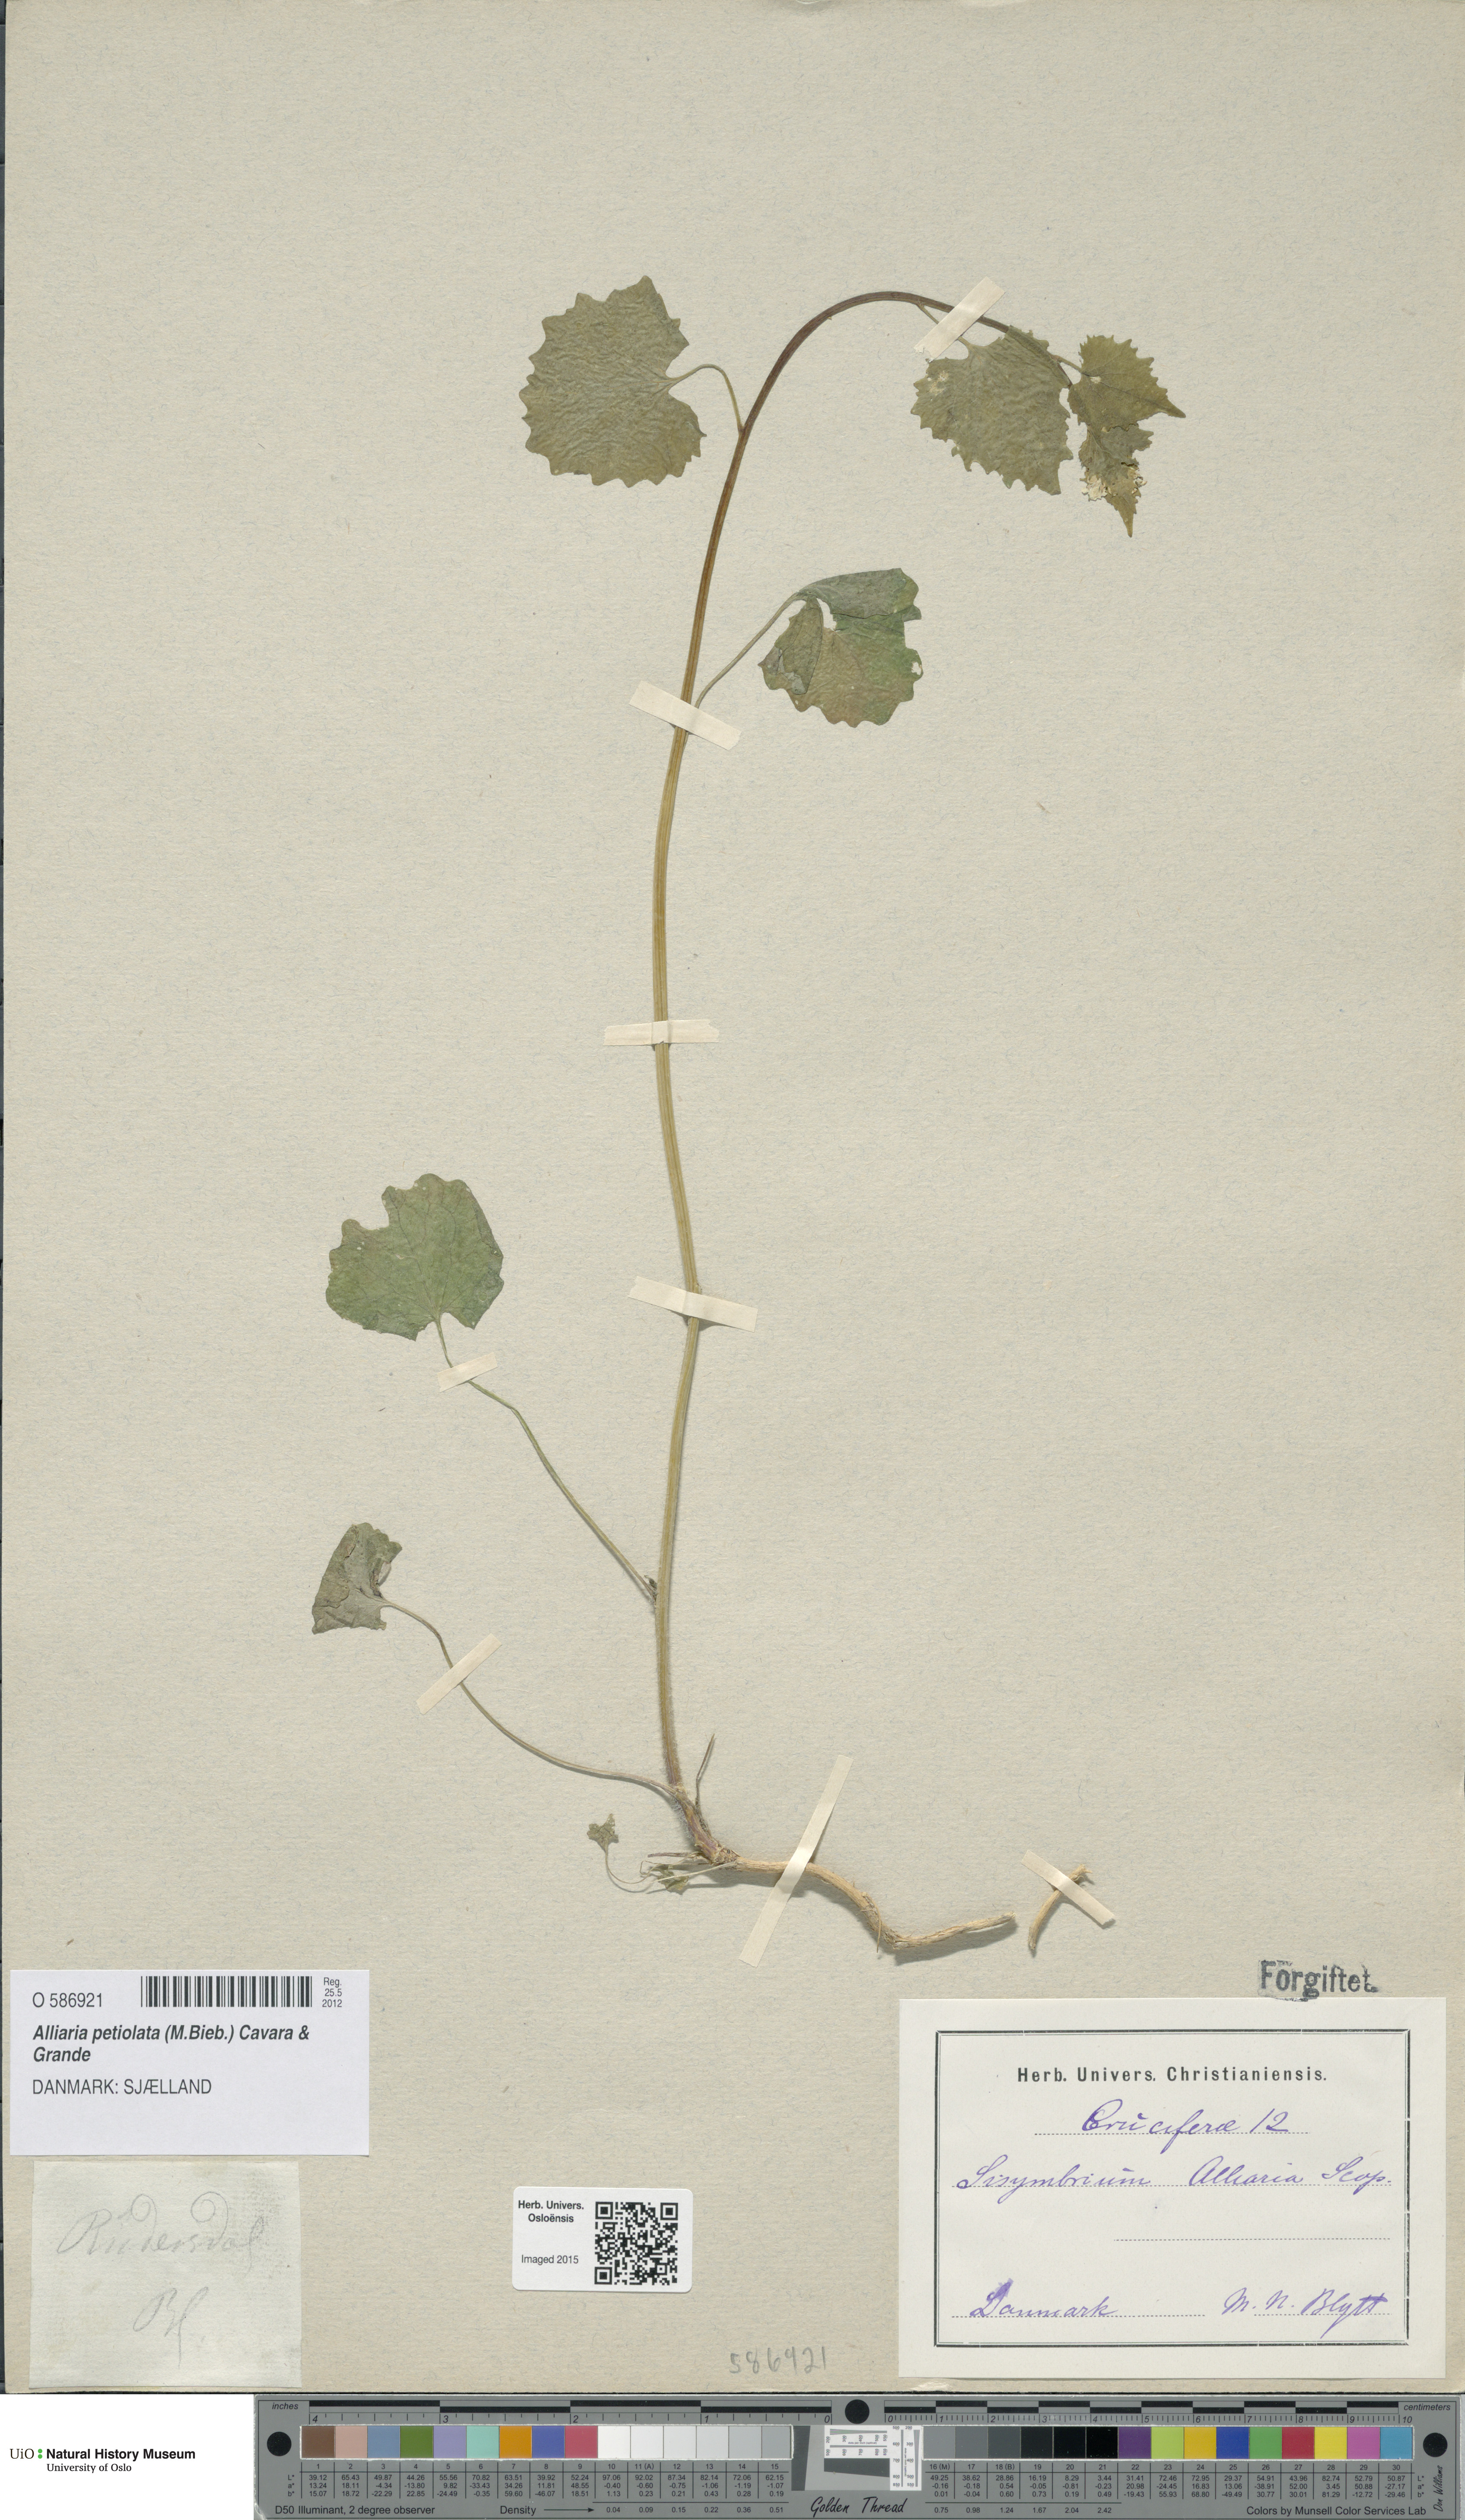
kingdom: Plantae
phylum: Tracheophyta
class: Magnoliopsida
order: Brassicales
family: Brassicaceae
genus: Alliaria
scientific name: Alliaria petiolata
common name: Garlic mustard
